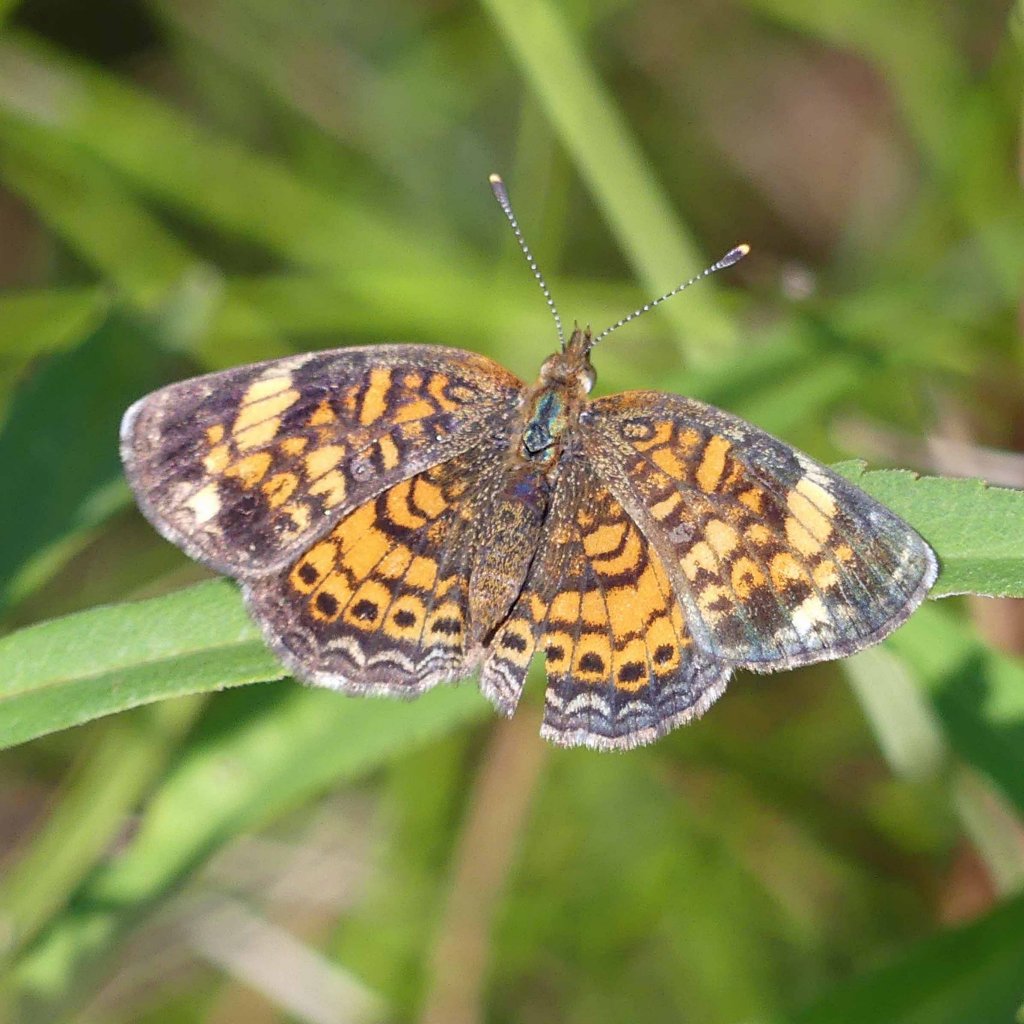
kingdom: Animalia
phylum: Arthropoda
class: Insecta
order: Lepidoptera
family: Nymphalidae
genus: Phyciodes
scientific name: Phyciodes tharos
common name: Northern Crescent
